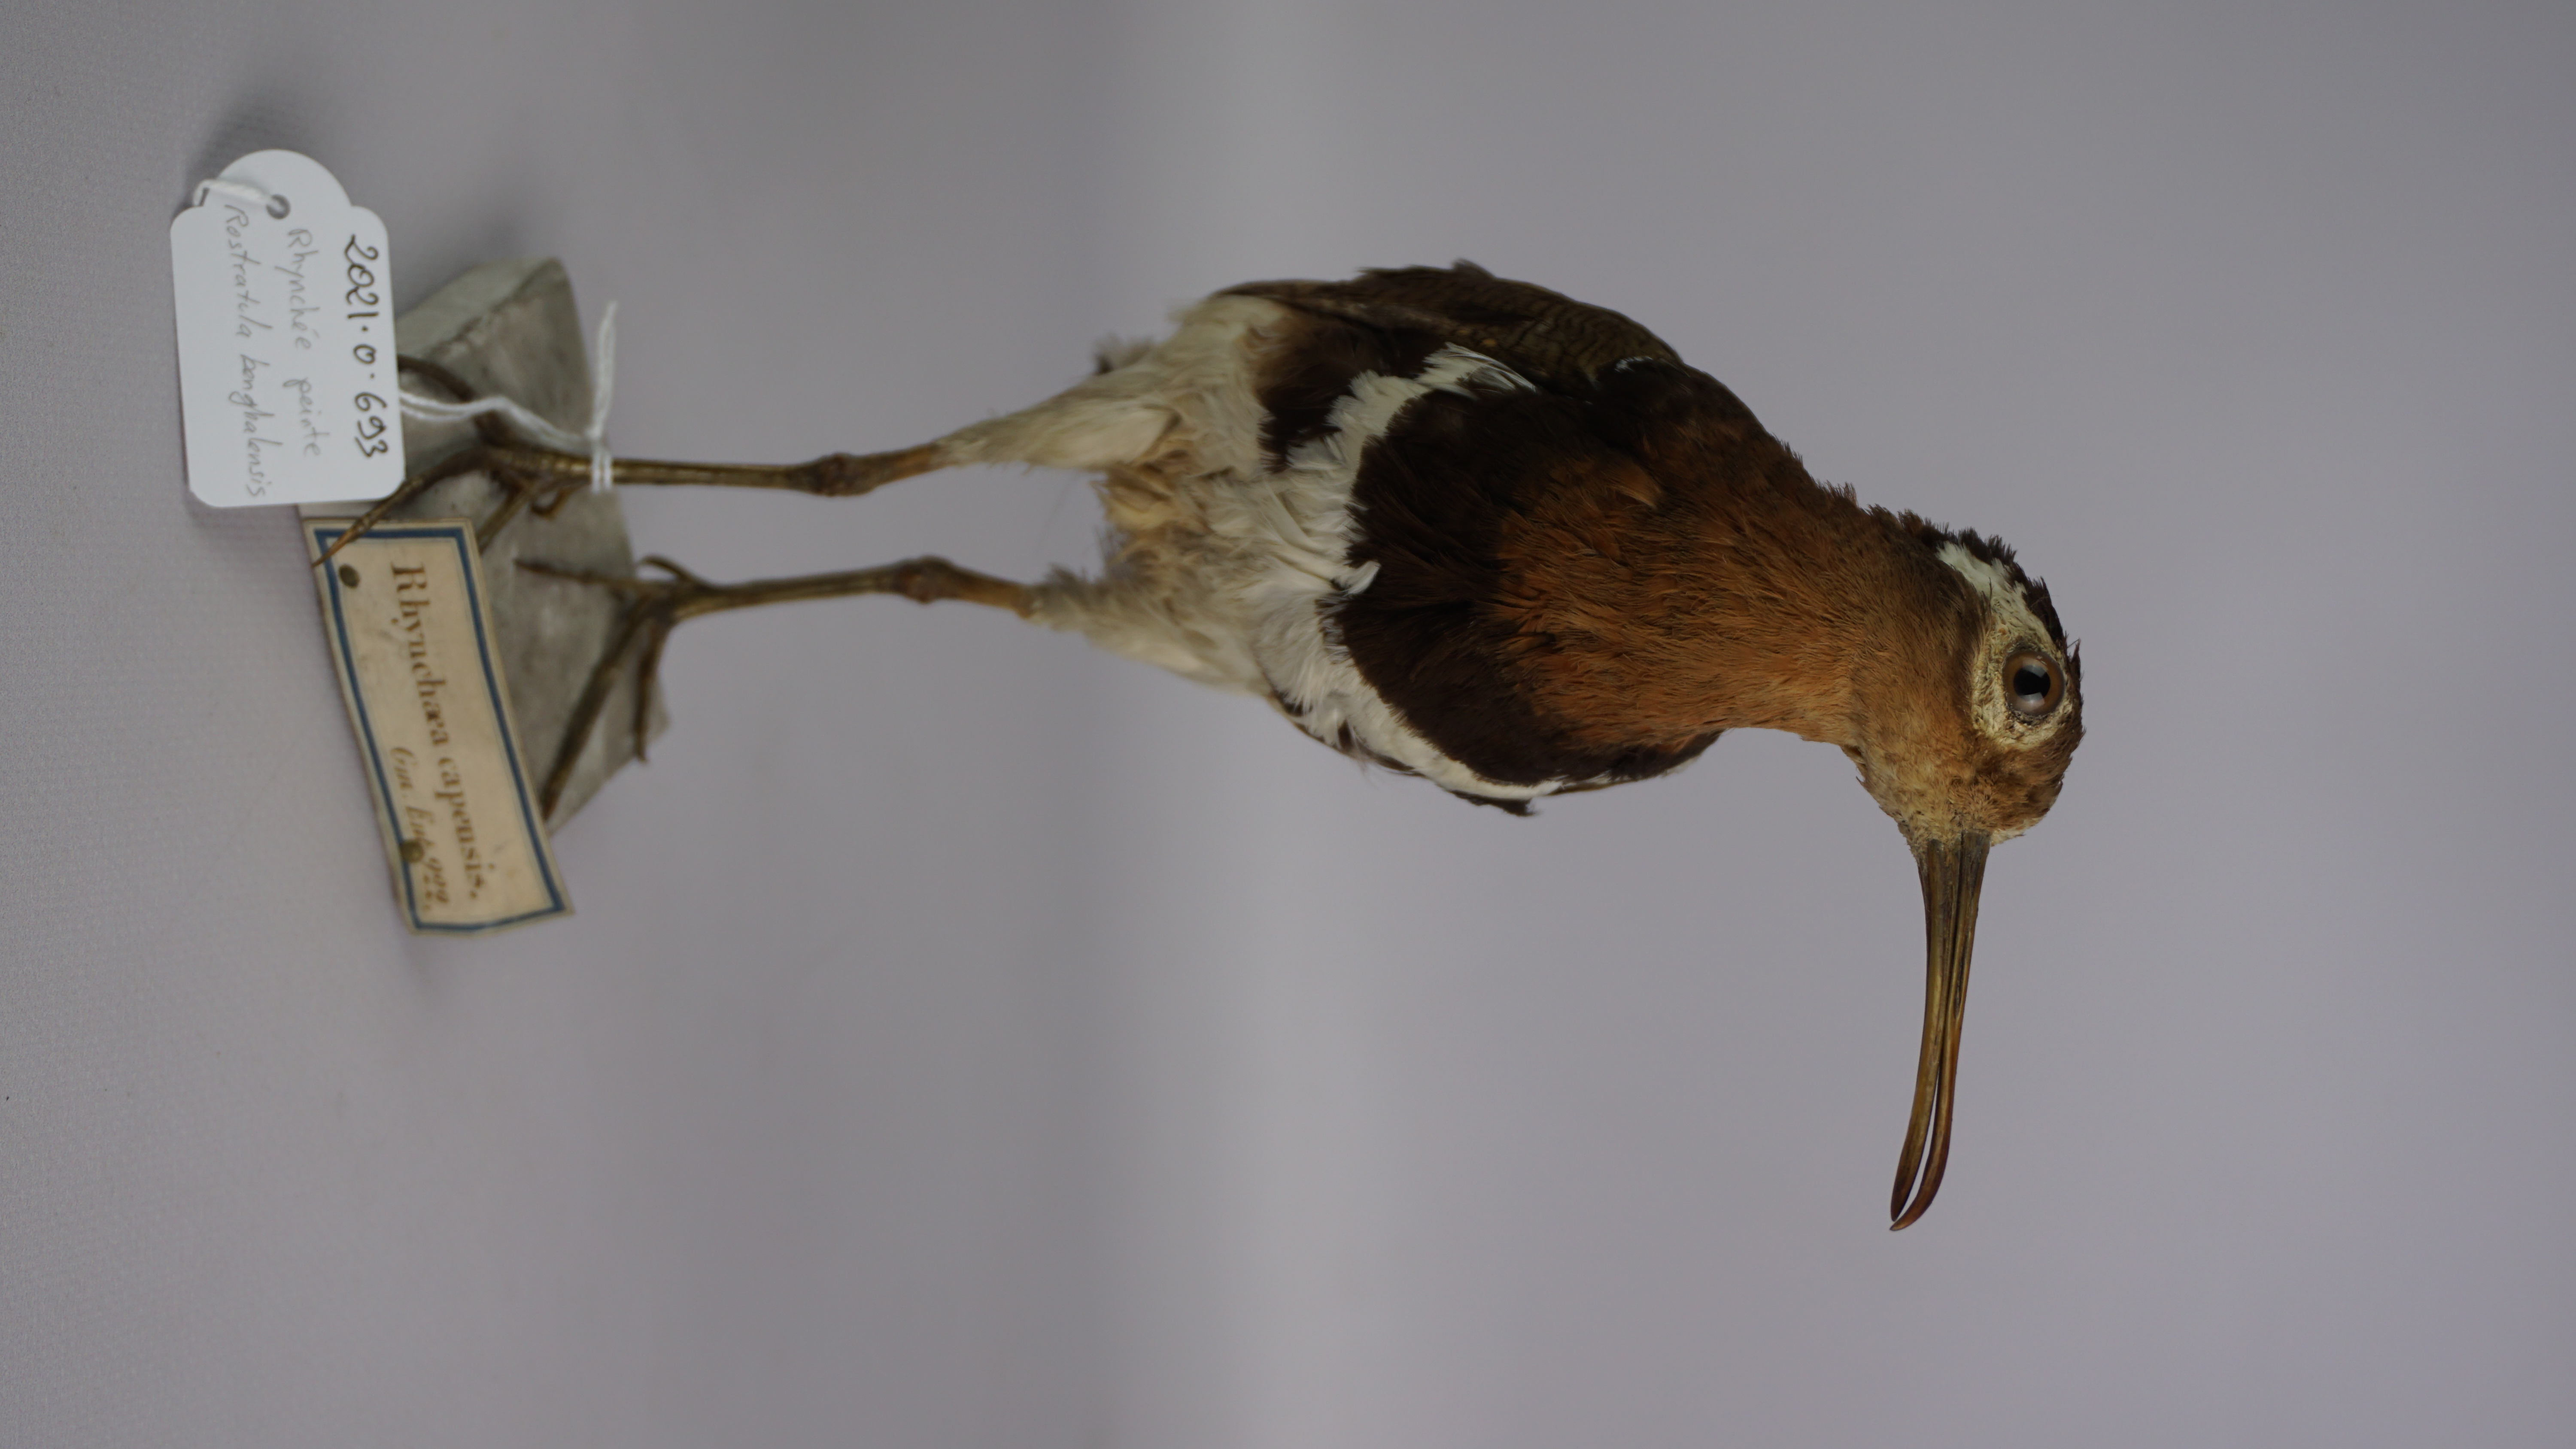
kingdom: Animalia
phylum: Chordata
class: Aves
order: Charadriiformes
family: Rostratulidae
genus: Rostratula
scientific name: Rostratula benghalensis
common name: Greater painted-snipe
